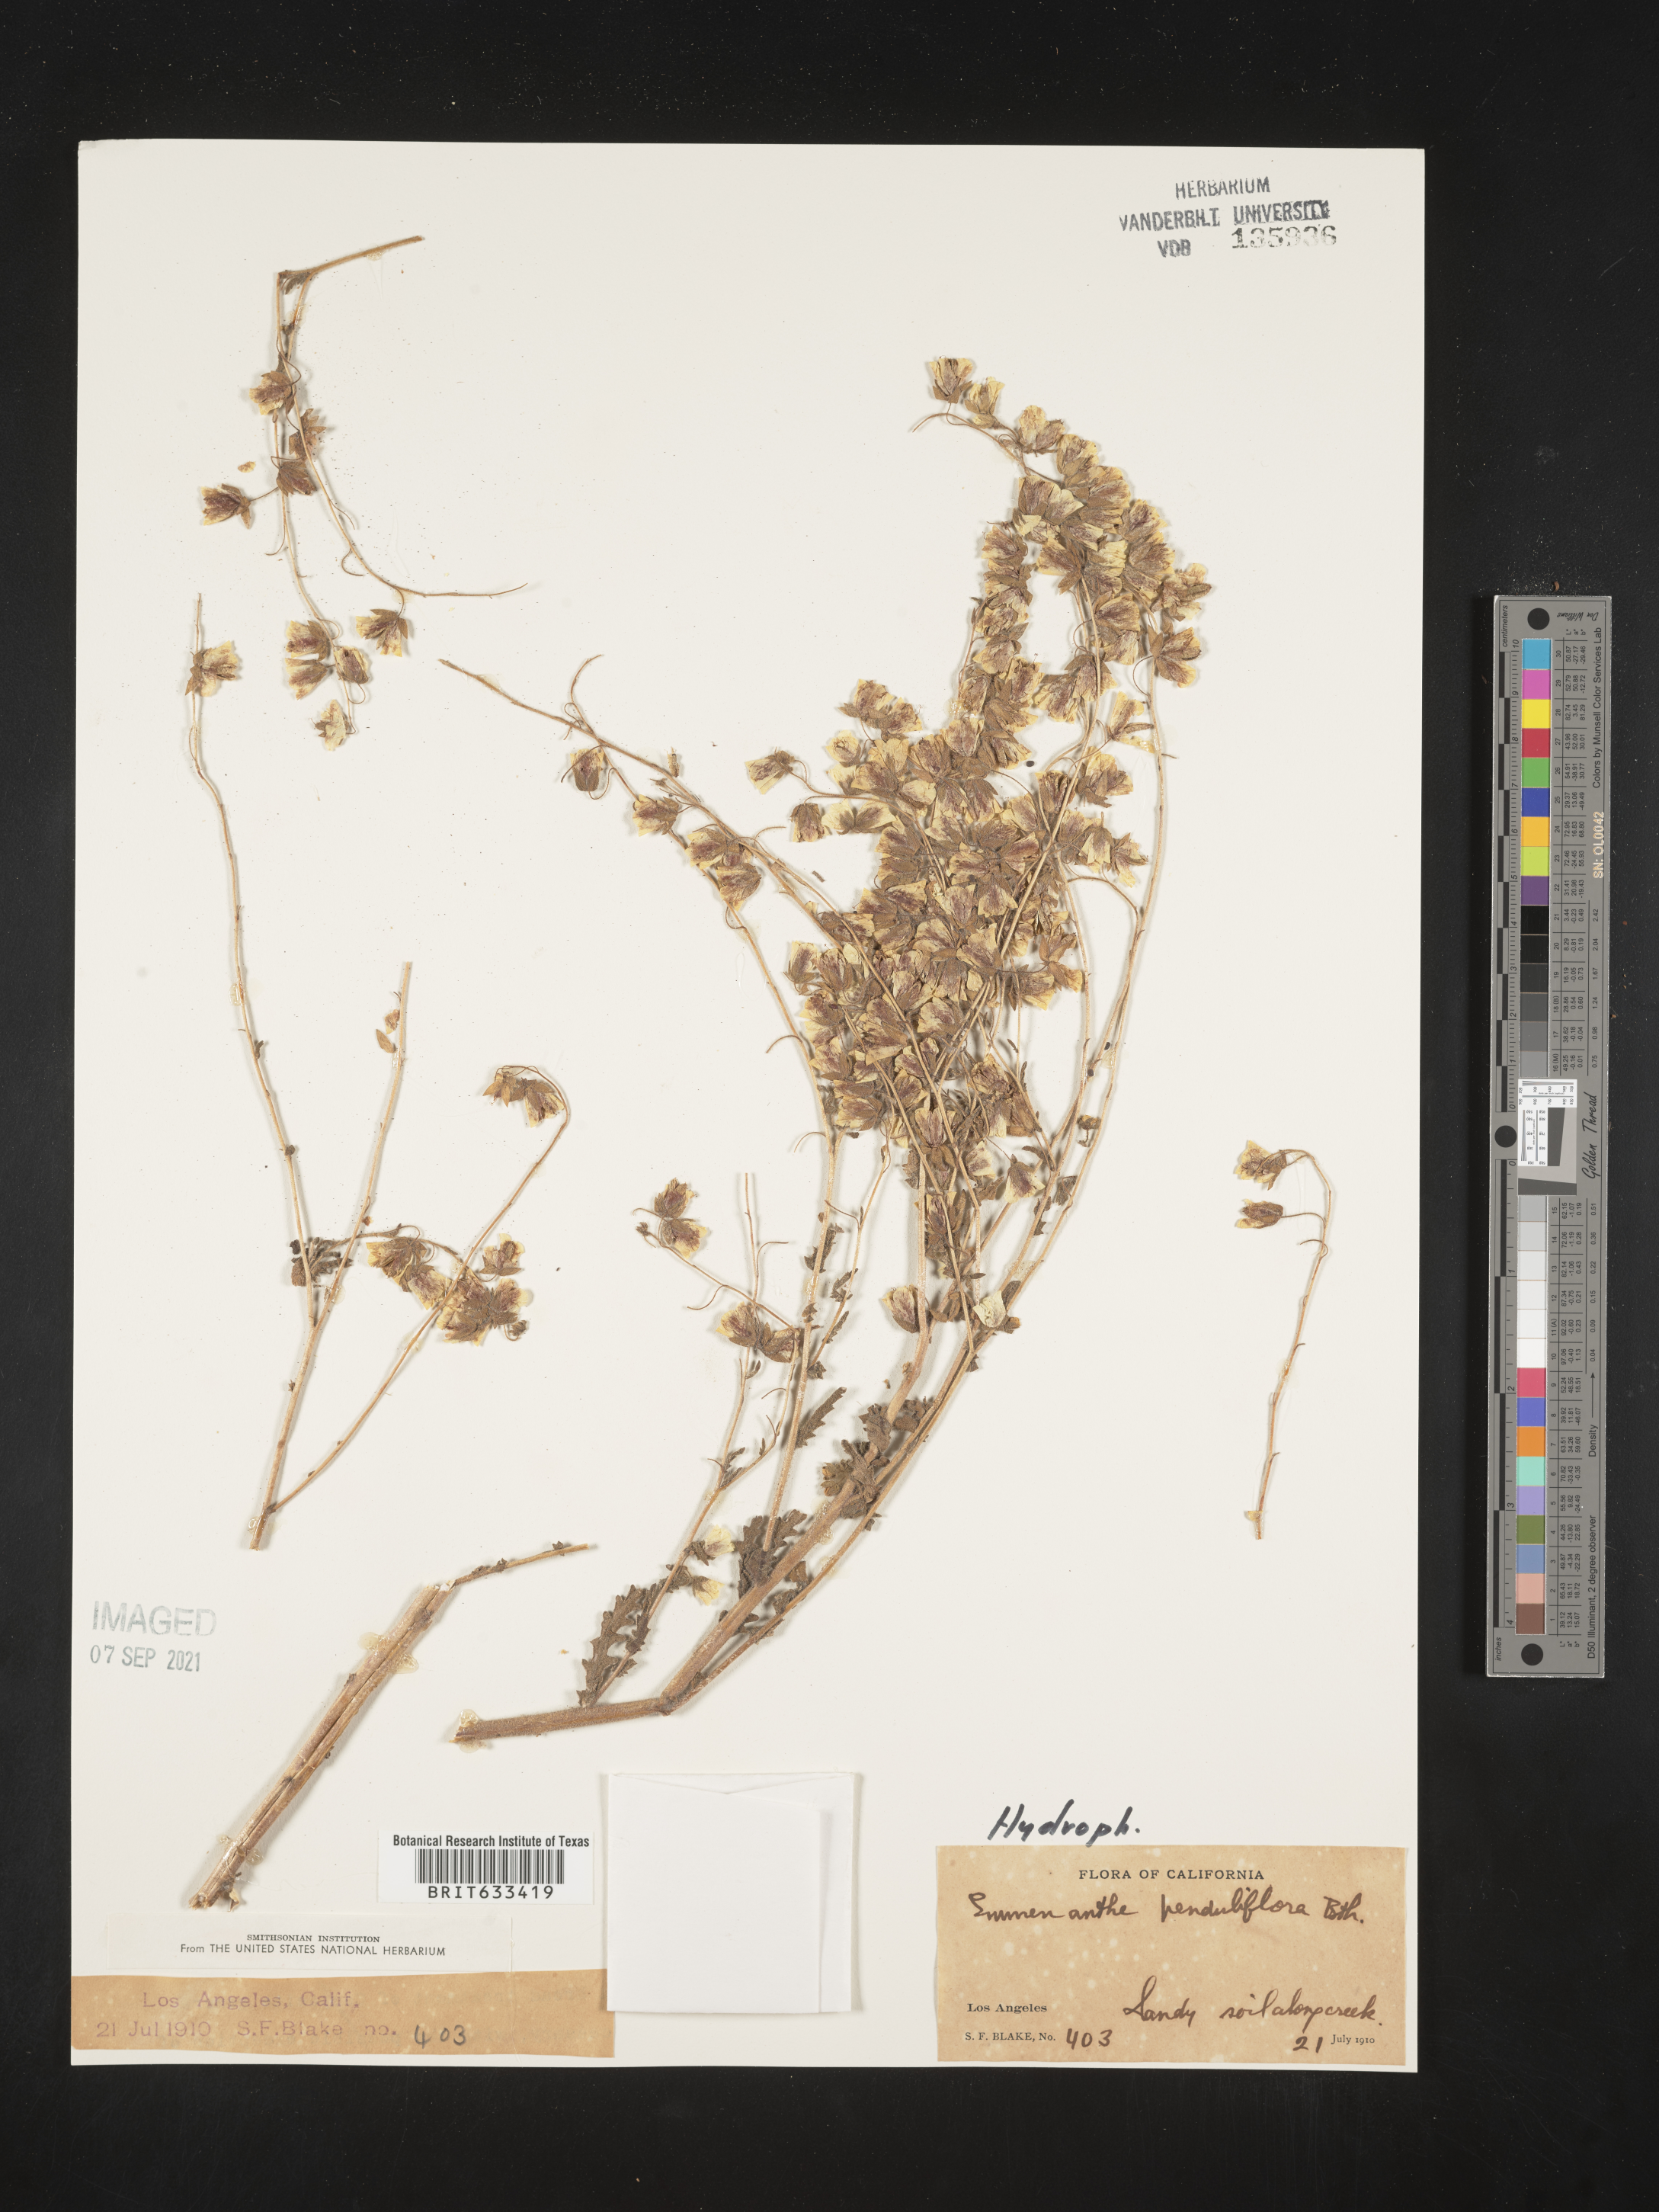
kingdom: Plantae
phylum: Tracheophyta
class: Magnoliopsida
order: Boraginales
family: Hydrophyllaceae
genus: Emmenanthe
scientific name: Emmenanthe penduliflora
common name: Whispering-bells
